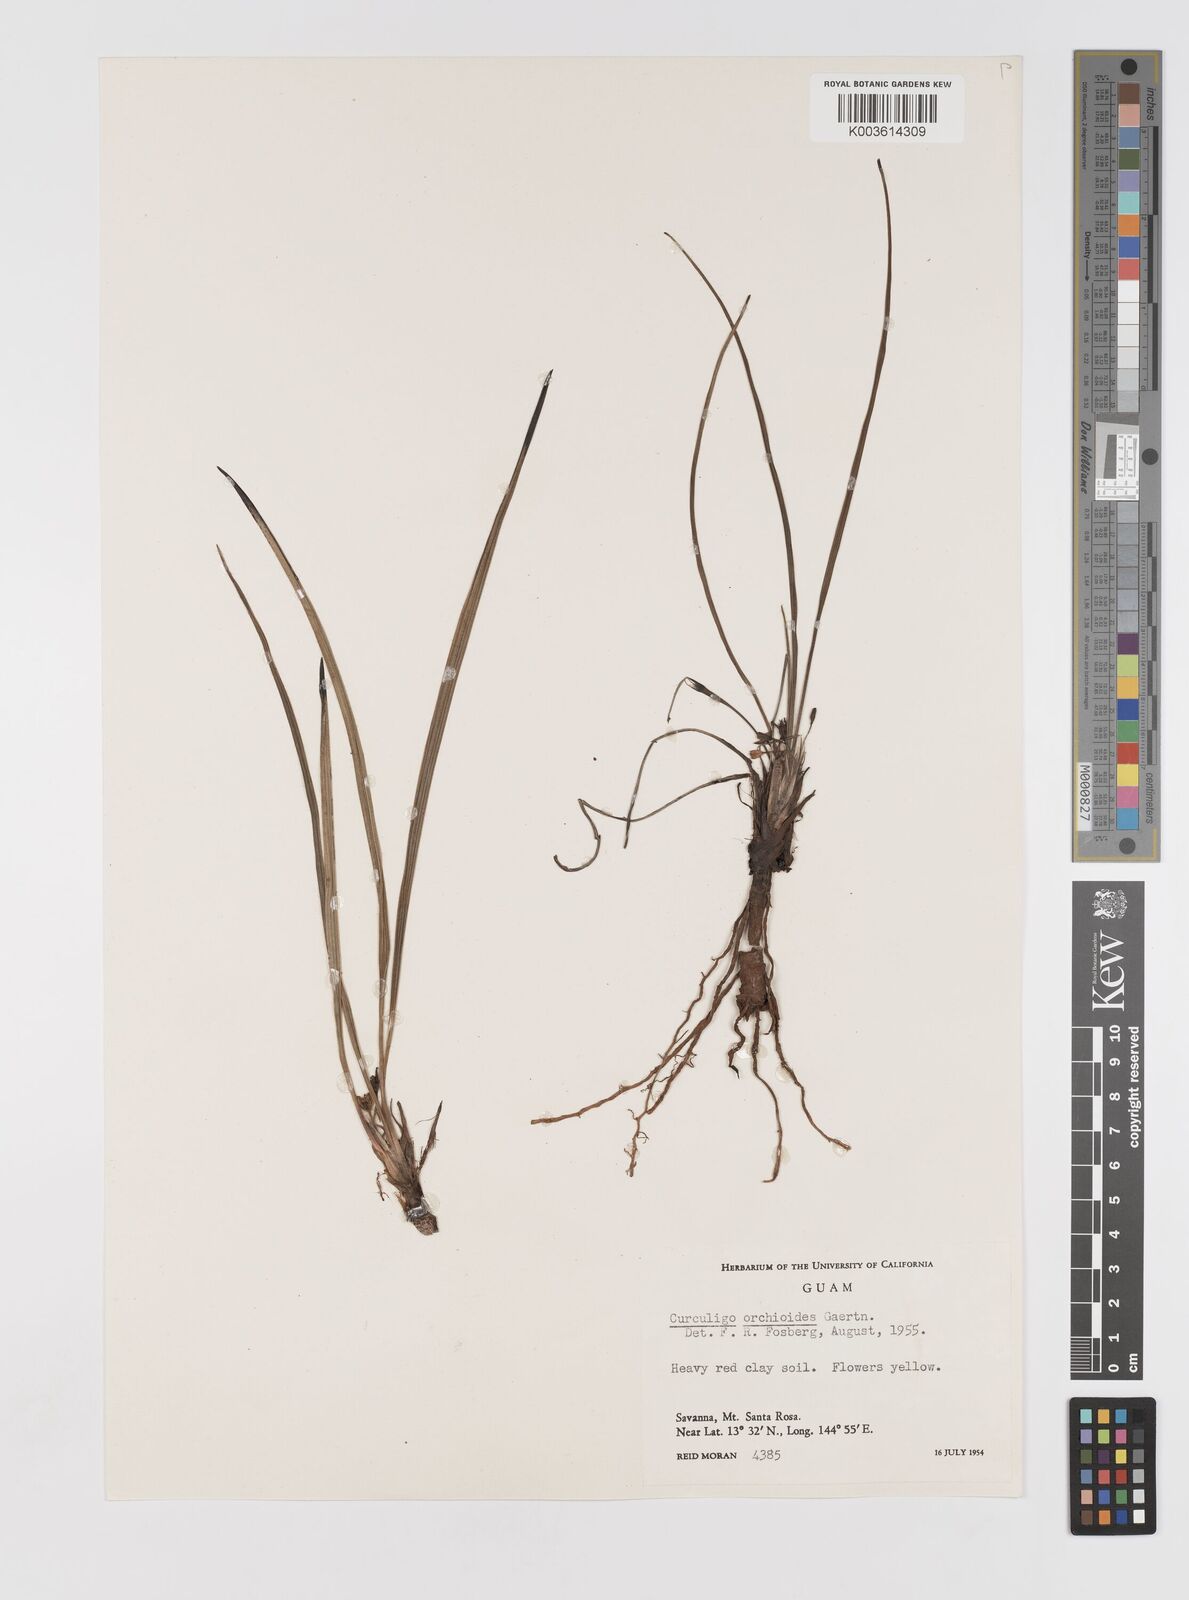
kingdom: Plantae
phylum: Tracheophyta
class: Liliopsida
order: Asparagales
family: Hypoxidaceae
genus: Curculigo
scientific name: Curculigo orchioides
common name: Golden eye-grass
